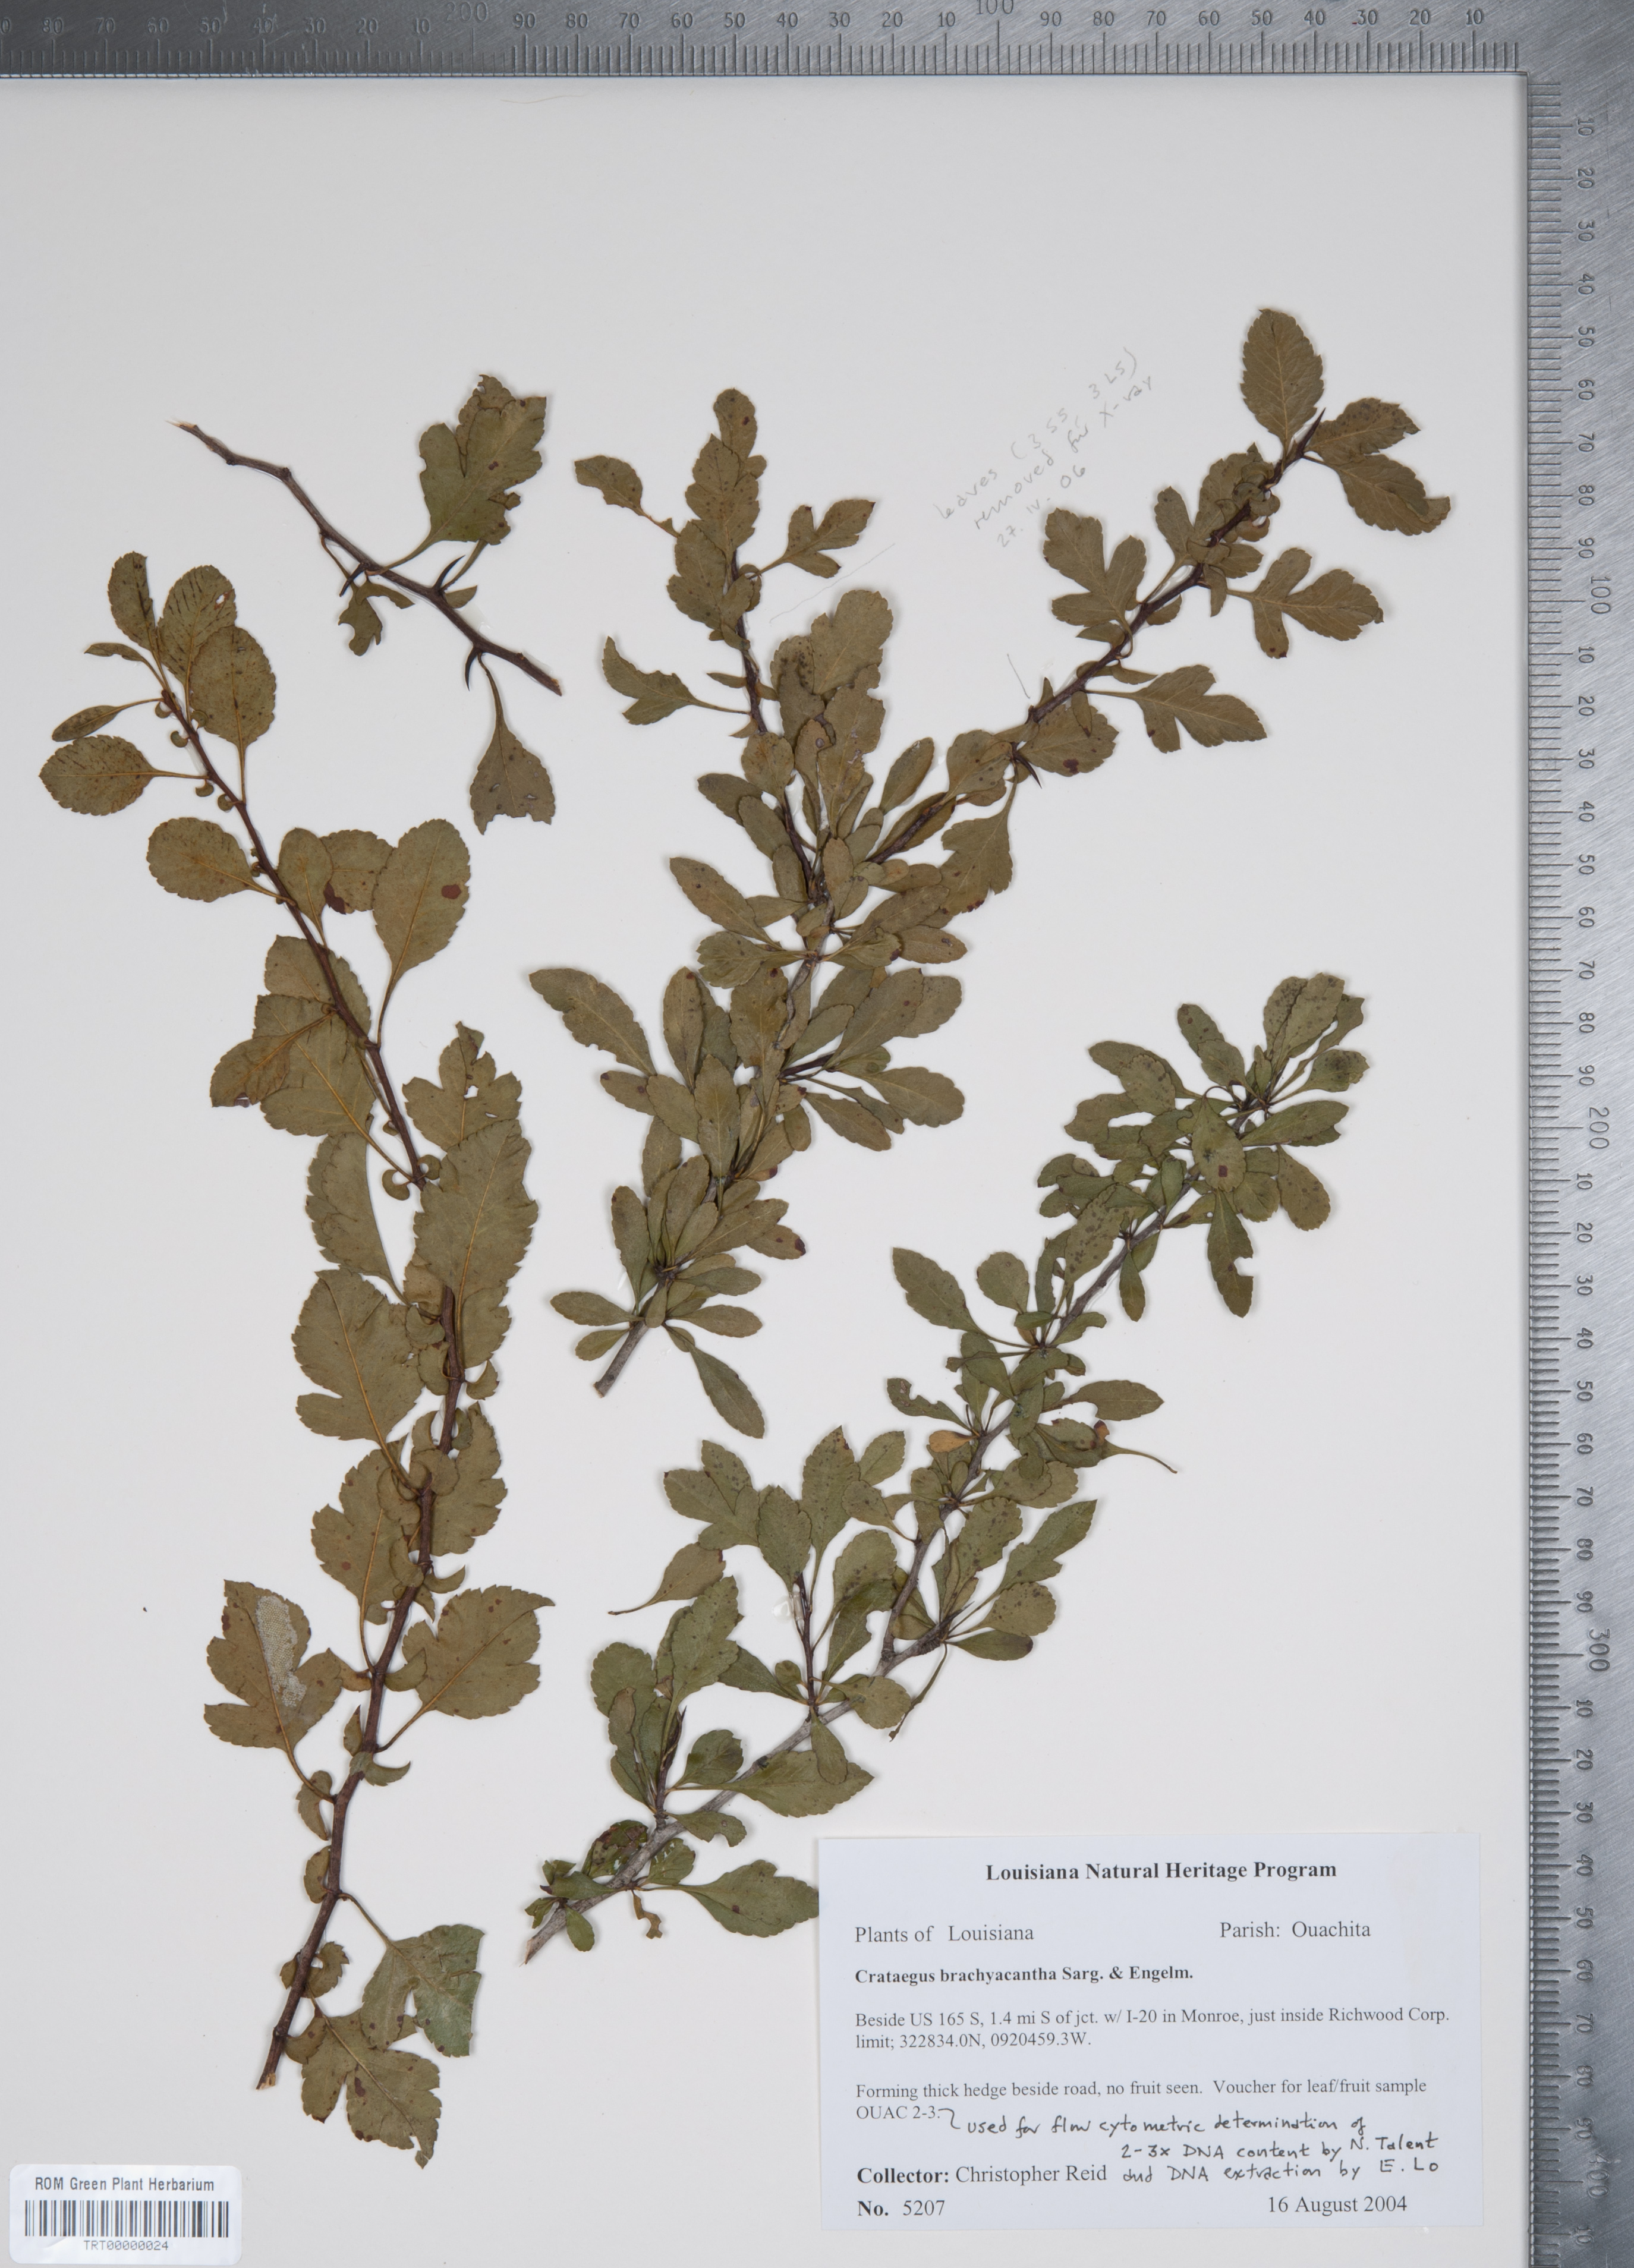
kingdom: Plantae
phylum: Tracheophyta
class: Magnoliopsida
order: Rosales
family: Rosaceae
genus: Crataegus
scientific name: Crataegus brachyacantha
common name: Blueberry-hawthorn
